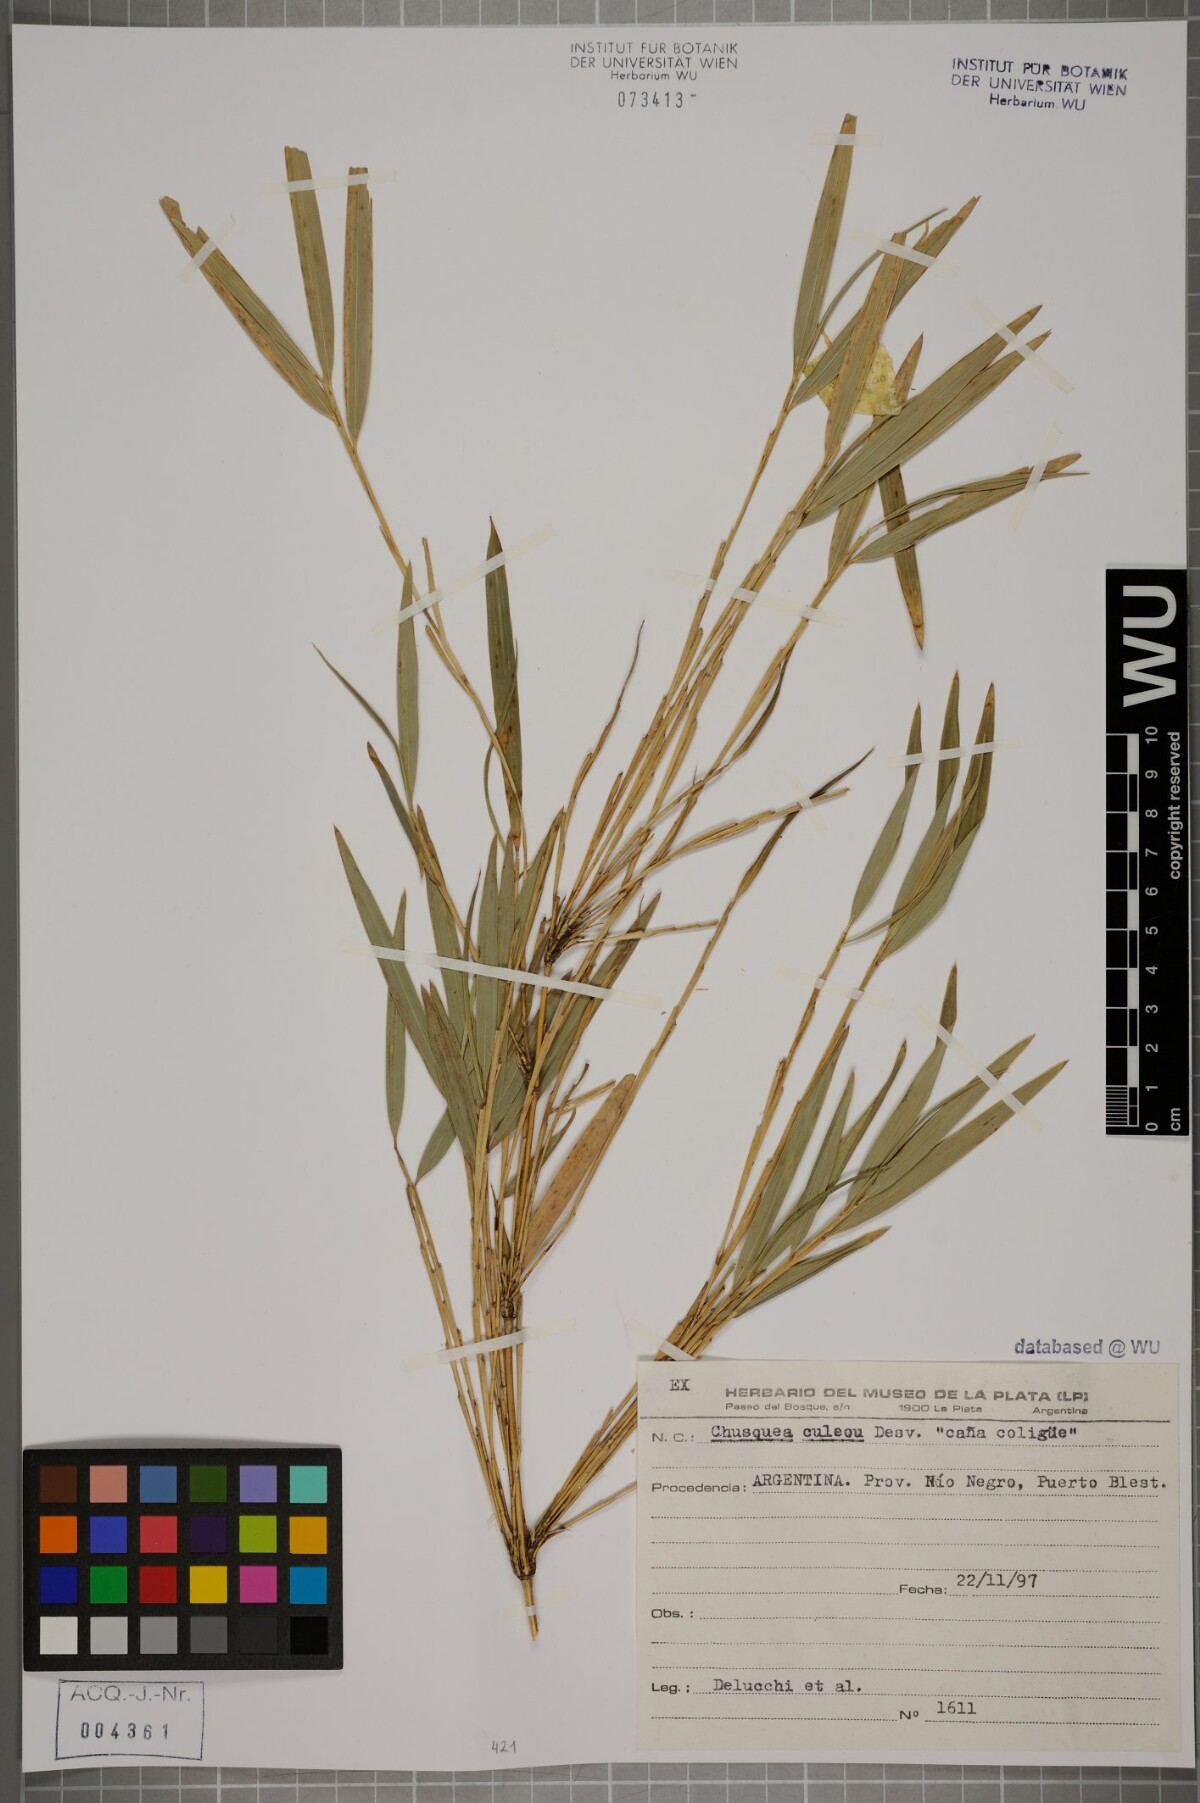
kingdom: Plantae
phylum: Tracheophyta
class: Liliopsida
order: Poales
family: Poaceae
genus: Chusquea
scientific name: Chusquea culeou
